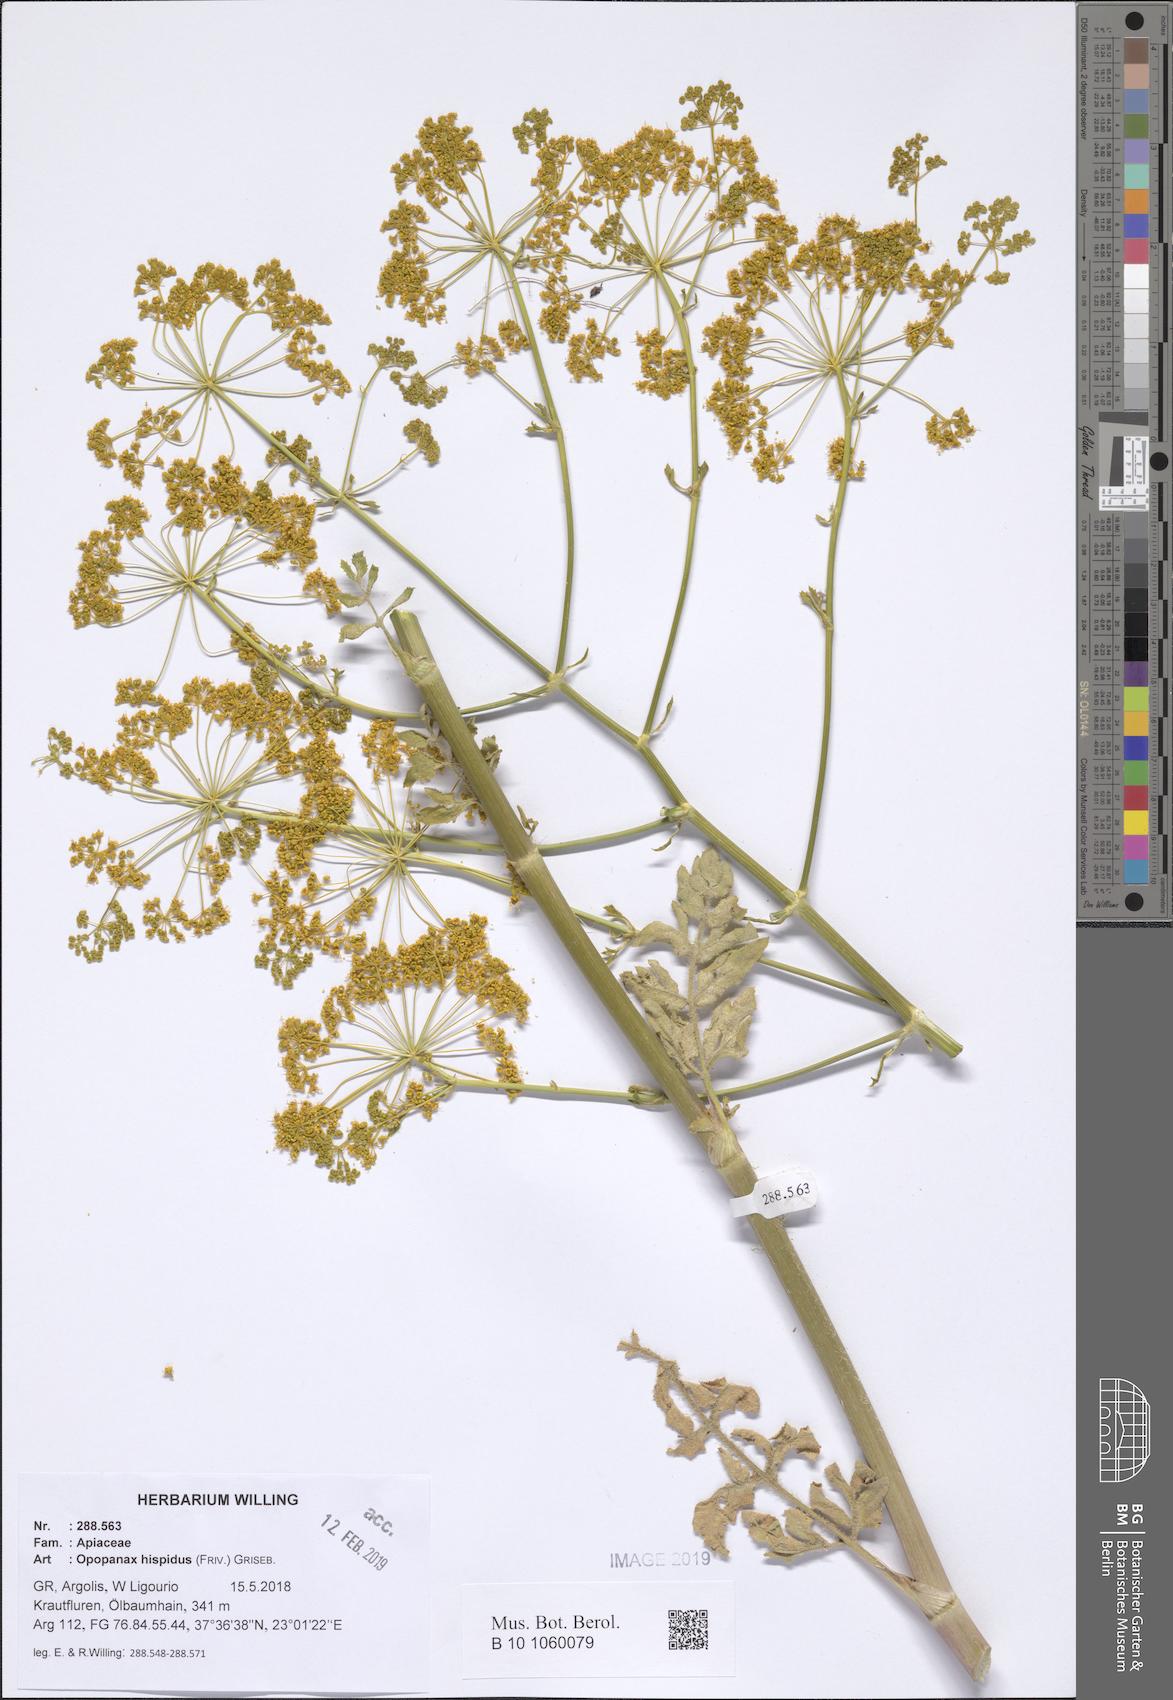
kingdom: Plantae
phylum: Tracheophyta
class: Magnoliopsida
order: Apiales
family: Apiaceae
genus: Opopanax
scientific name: Opopanax hispidus
